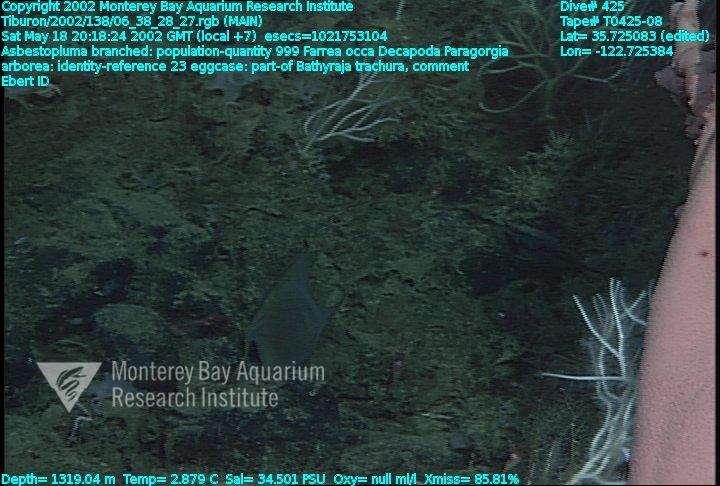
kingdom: Animalia
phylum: Porifera
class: Demospongiae
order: Poecilosclerida
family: Cladorhizidae
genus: Asbestopluma
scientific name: Asbestopluma monticola
